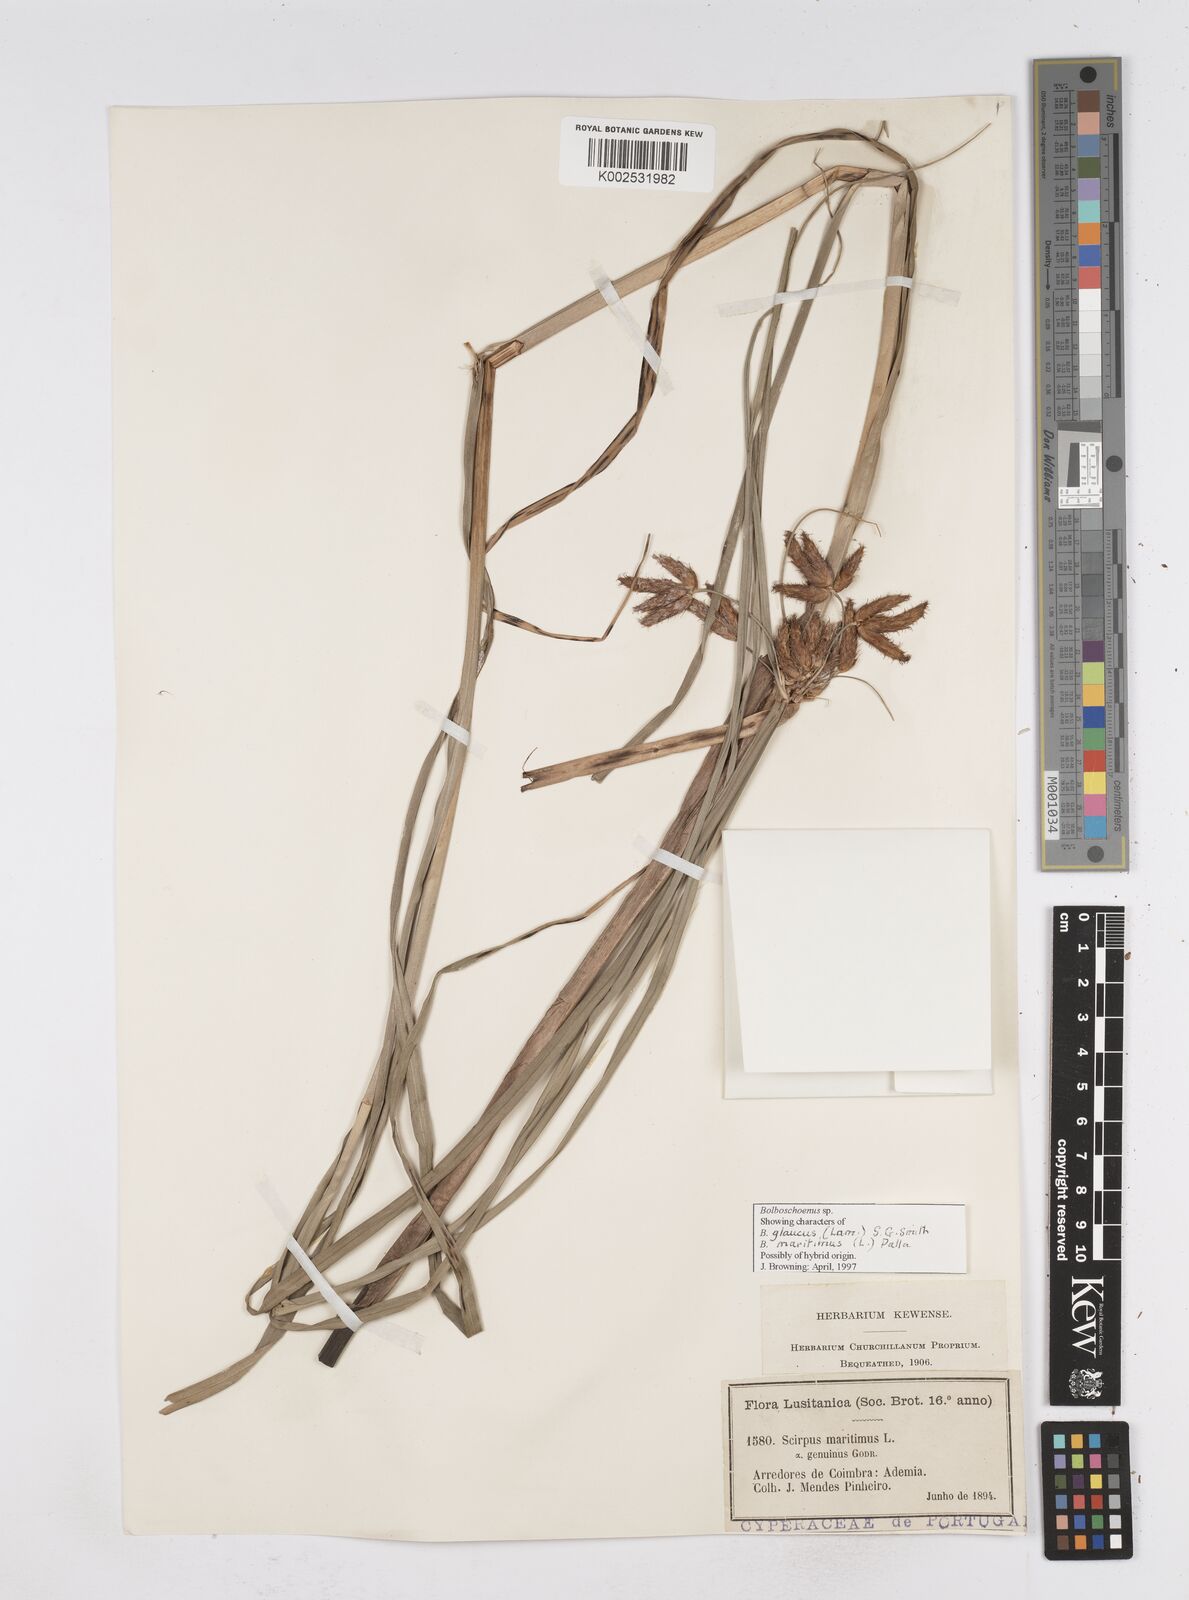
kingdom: Plantae
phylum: Tracheophyta
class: Liliopsida
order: Poales
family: Cyperaceae
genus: Bolboschoenus
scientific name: Bolboschoenus maritimus
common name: Sea club-rush
